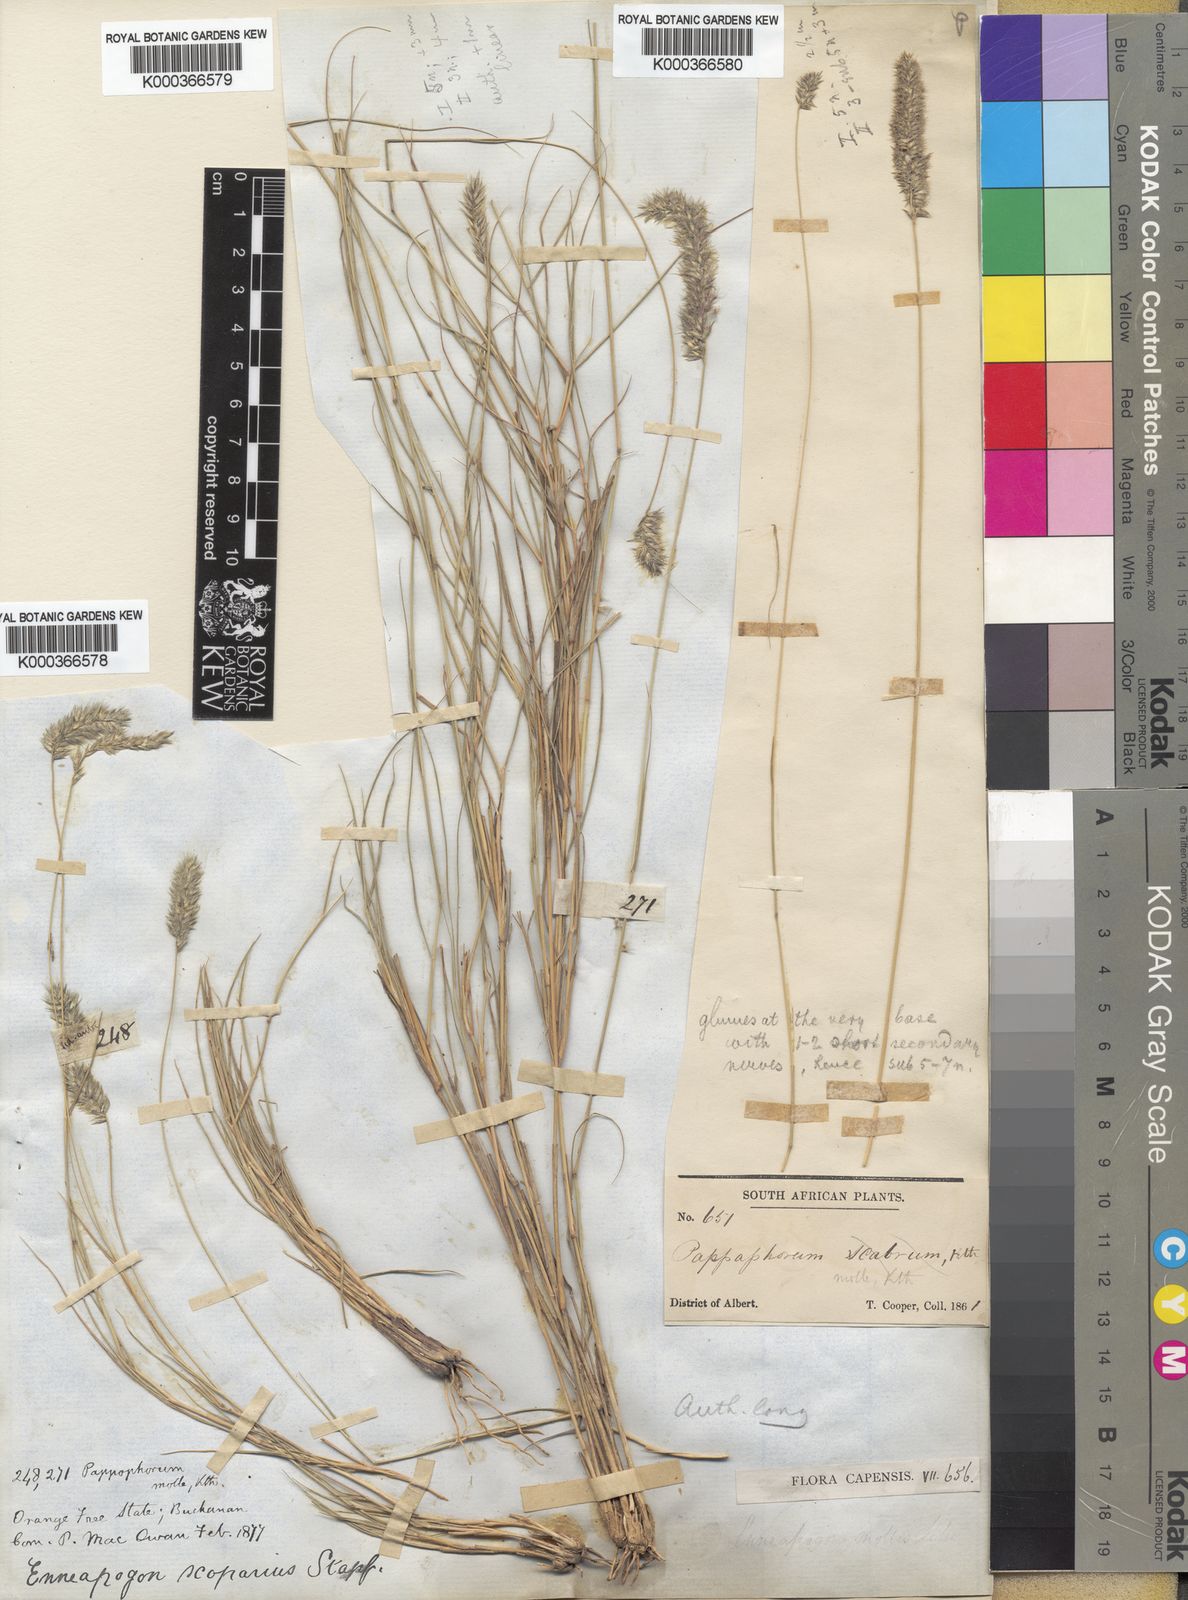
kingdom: Plantae
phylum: Tracheophyta
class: Liliopsida
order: Poales
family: Poaceae
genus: Enneapogon
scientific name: Enneapogon scoparius
